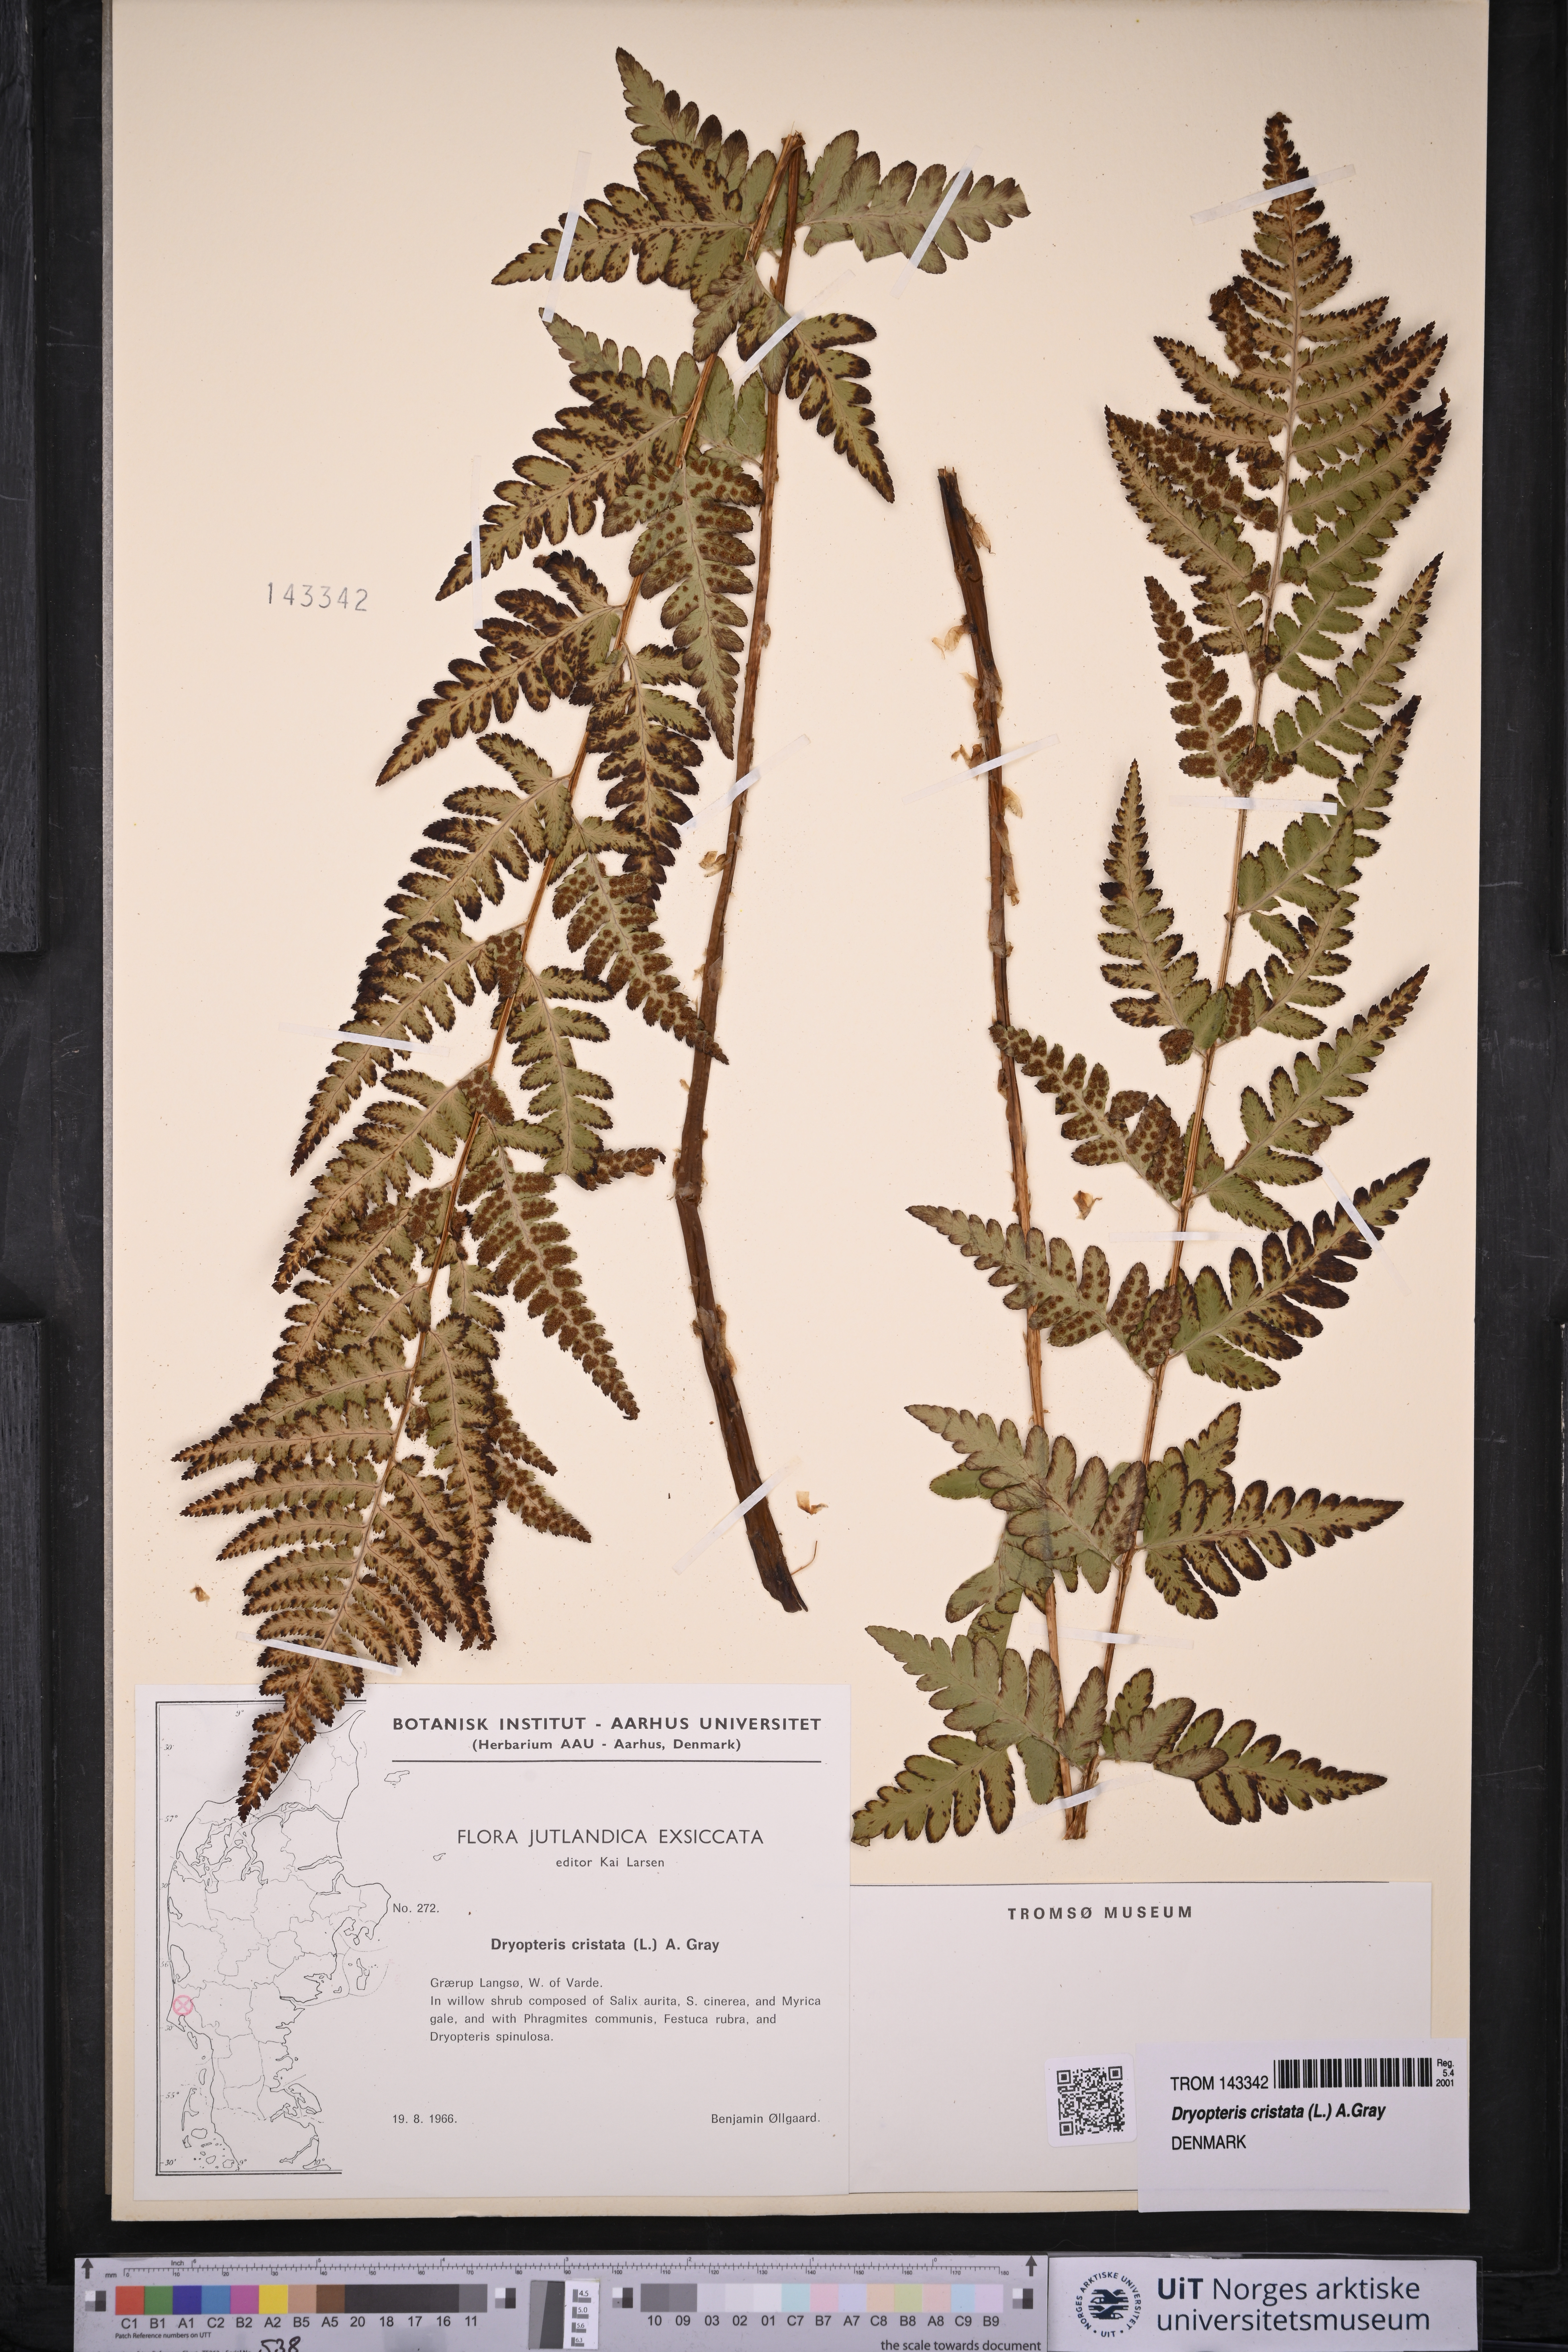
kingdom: Plantae
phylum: Tracheophyta
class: Polypodiopsida
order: Polypodiales
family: Dryopteridaceae
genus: Dryopteris
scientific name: Dryopteris cristata
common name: Crested wood fern
